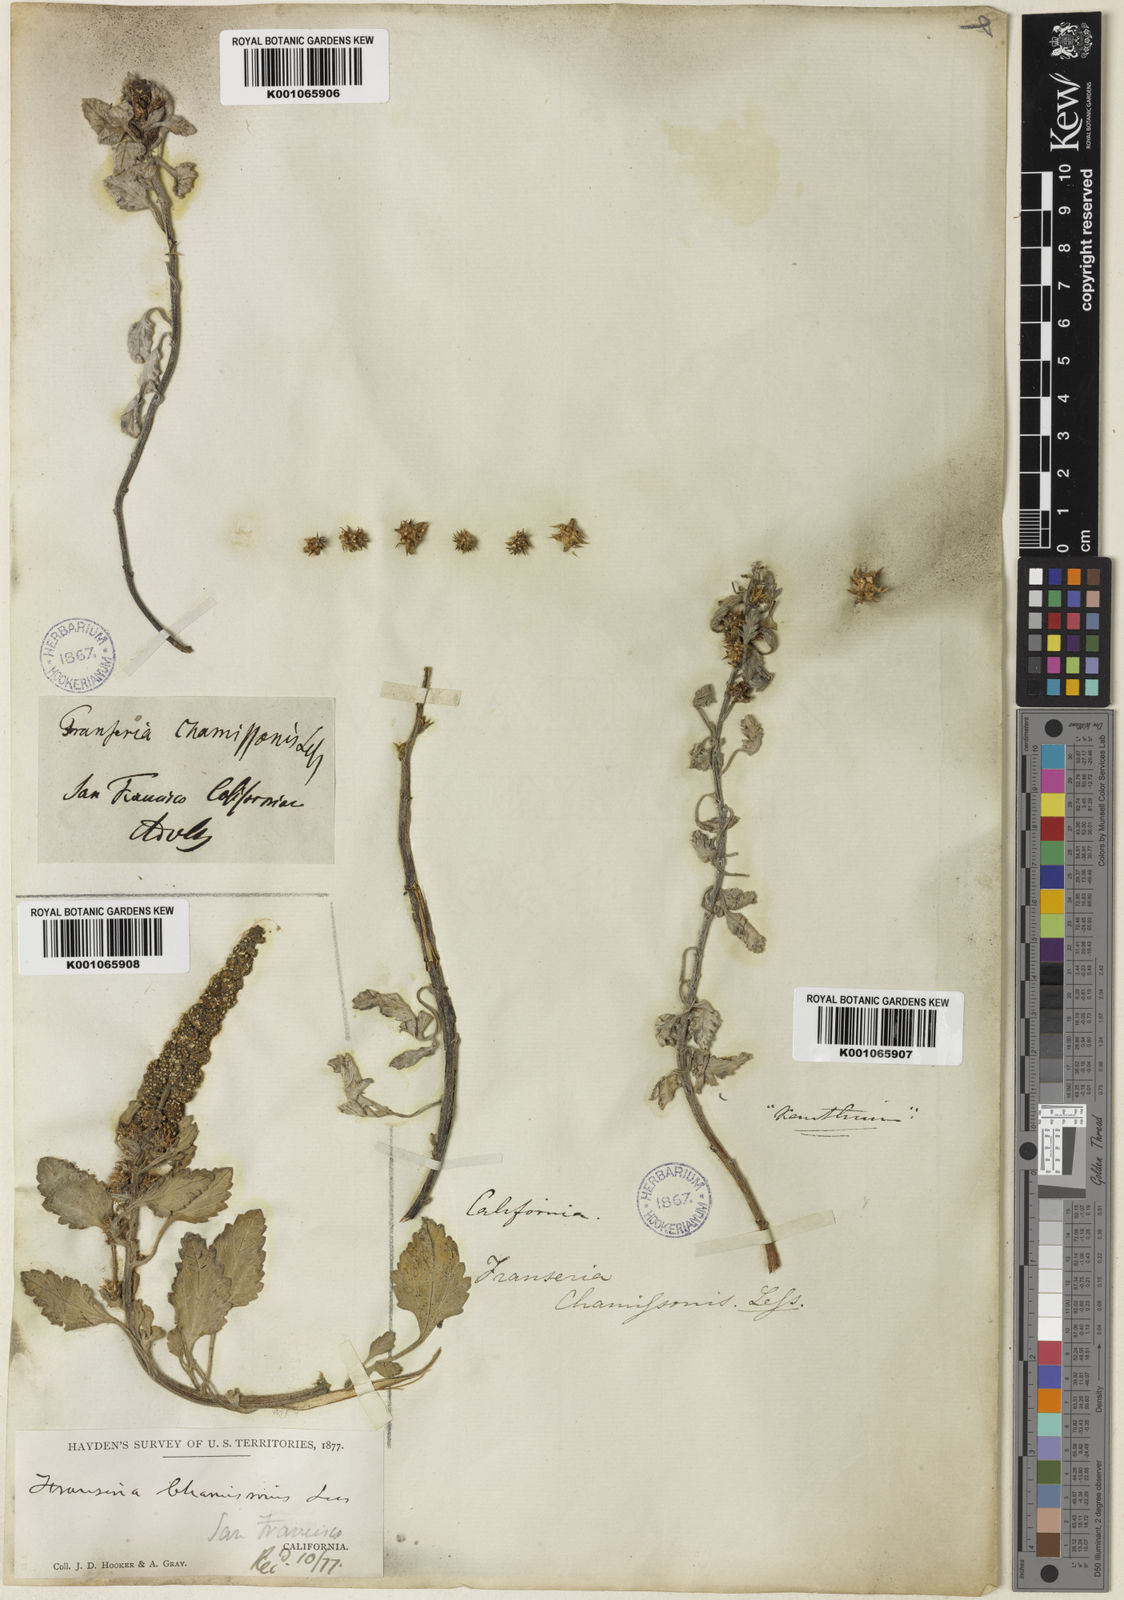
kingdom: Plantae
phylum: Tracheophyta
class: Magnoliopsida
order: Asterales
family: Asteraceae
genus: Ambrosia
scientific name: Ambrosia chamissonis
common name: Beachbur
